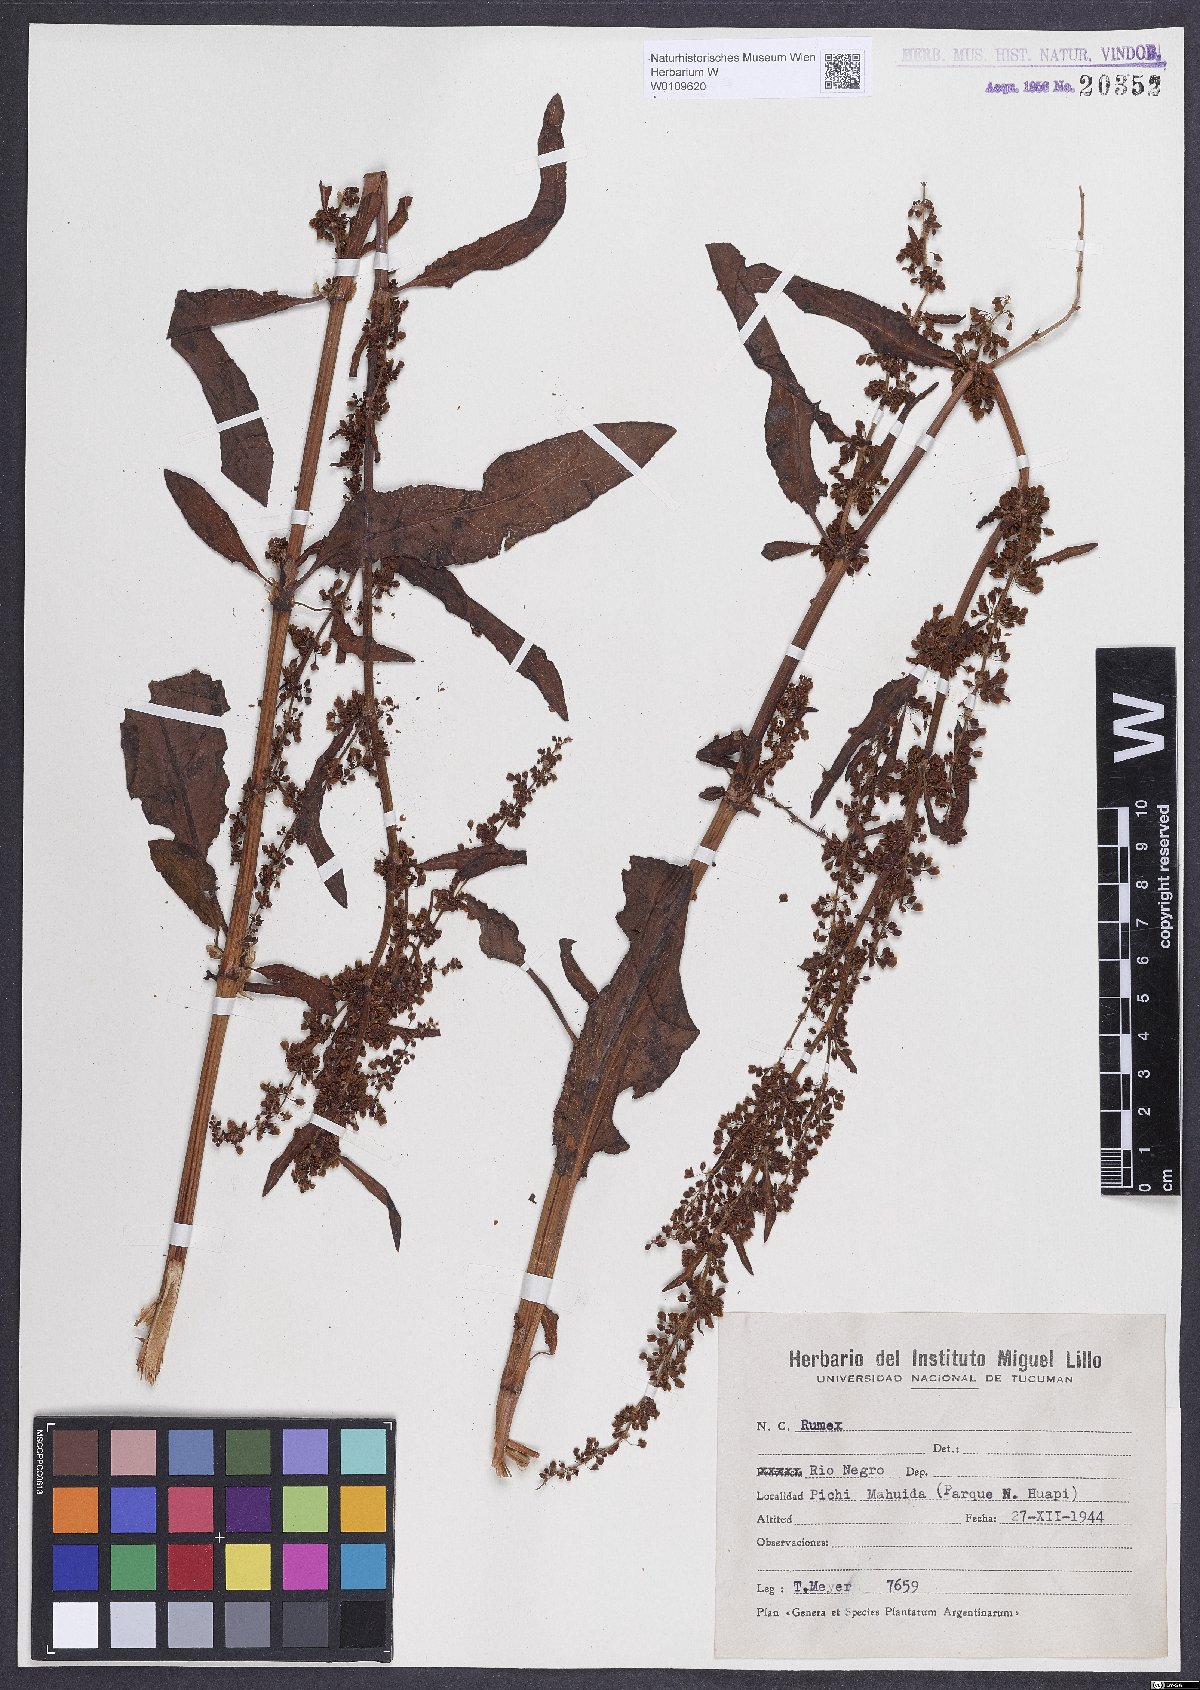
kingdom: Plantae
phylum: Tracheophyta
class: Magnoliopsida
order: Caryophyllales
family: Polygonaceae
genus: Rumex
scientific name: Rumex crispus
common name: Curled dock
